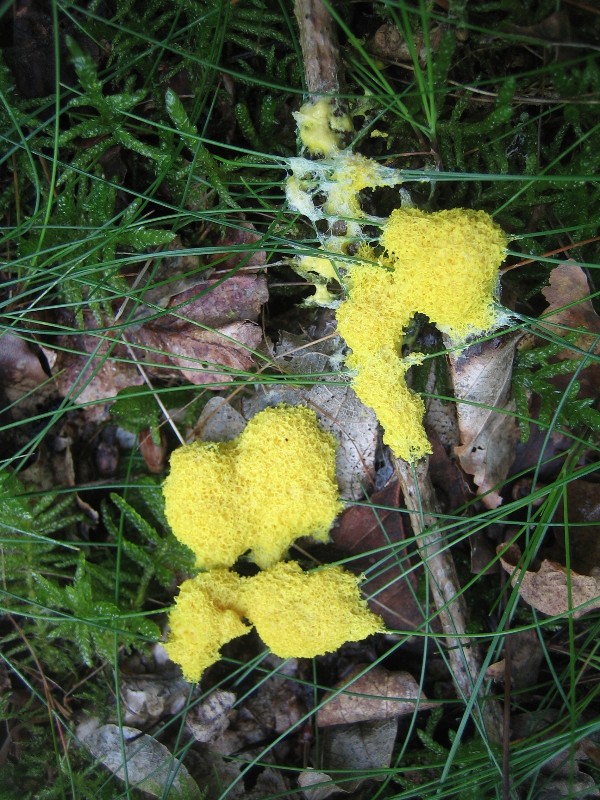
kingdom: Protozoa
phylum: Mycetozoa
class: Myxomycetes
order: Physarales
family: Physaraceae
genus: Fuligo
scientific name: Fuligo septica
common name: gul troldsmør
